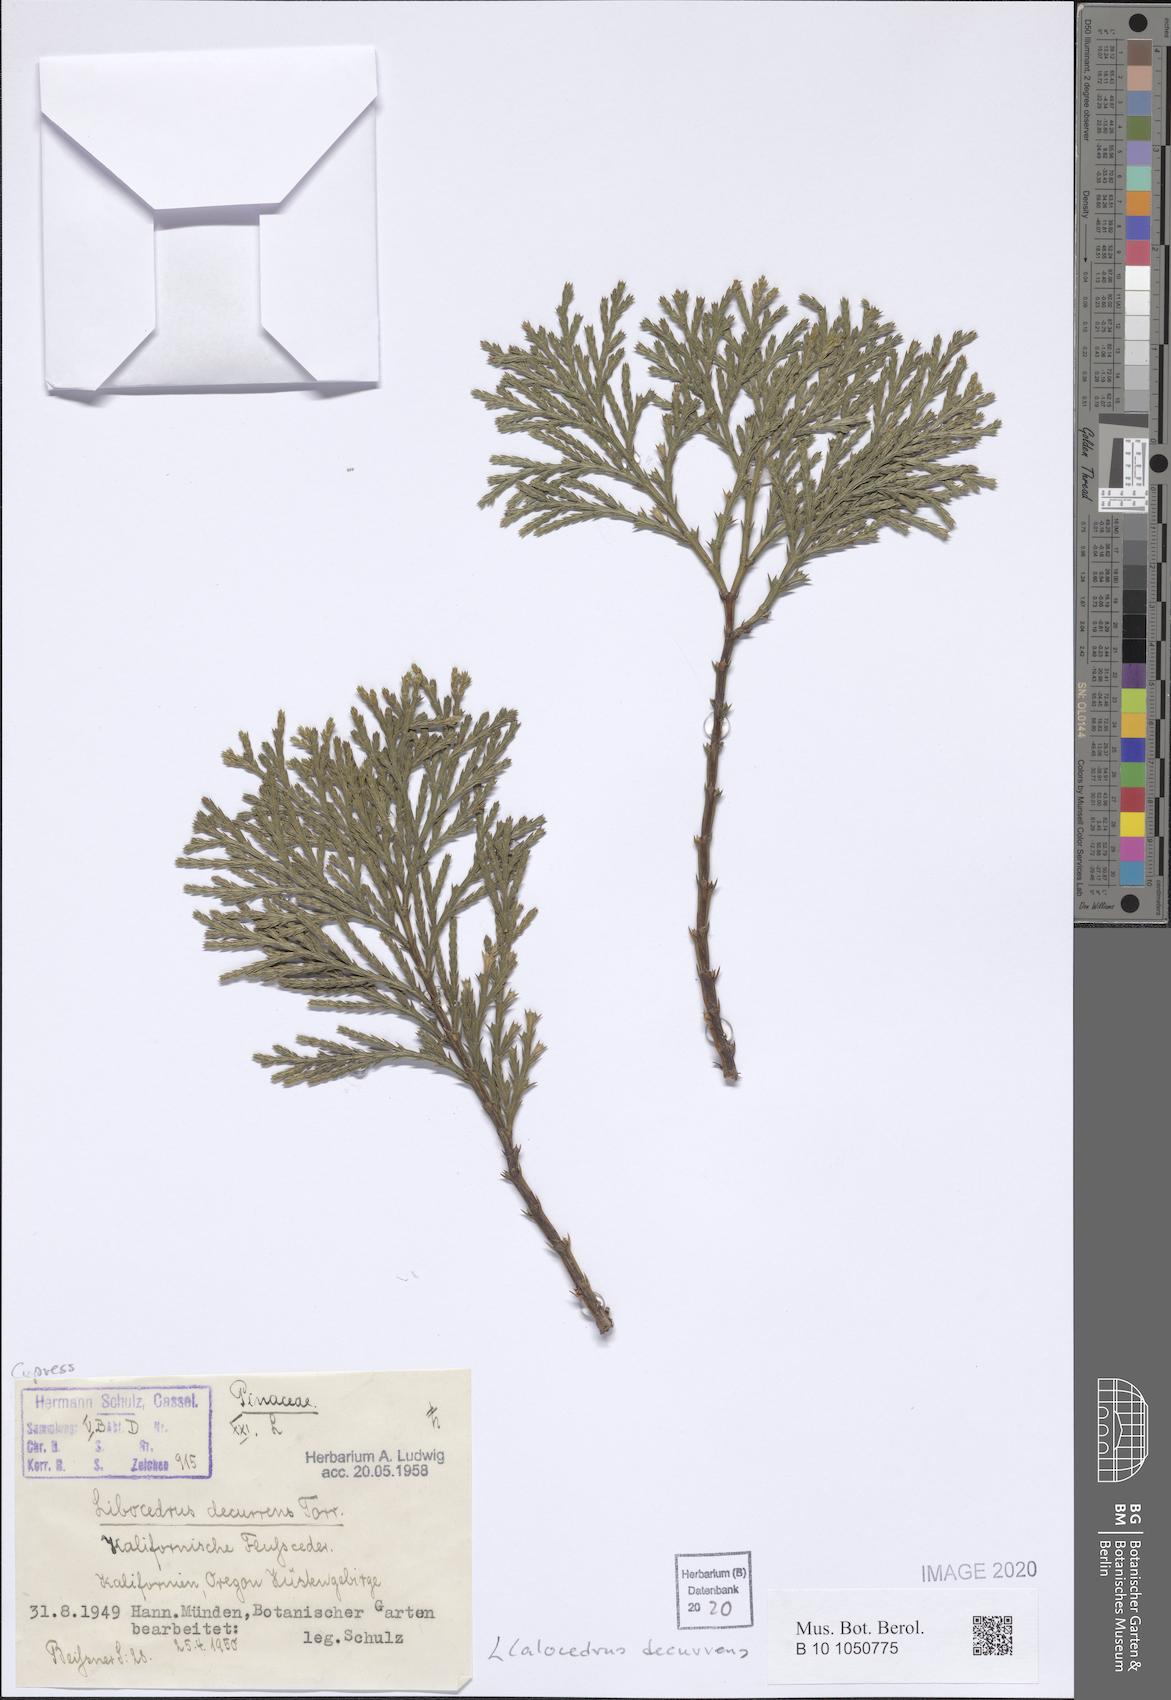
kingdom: Plantae
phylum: Tracheophyta
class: Pinopsida
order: Pinales
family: Cupressaceae
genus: Calocedrus
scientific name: Calocedrus decurrens
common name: Californian incense-cedar
